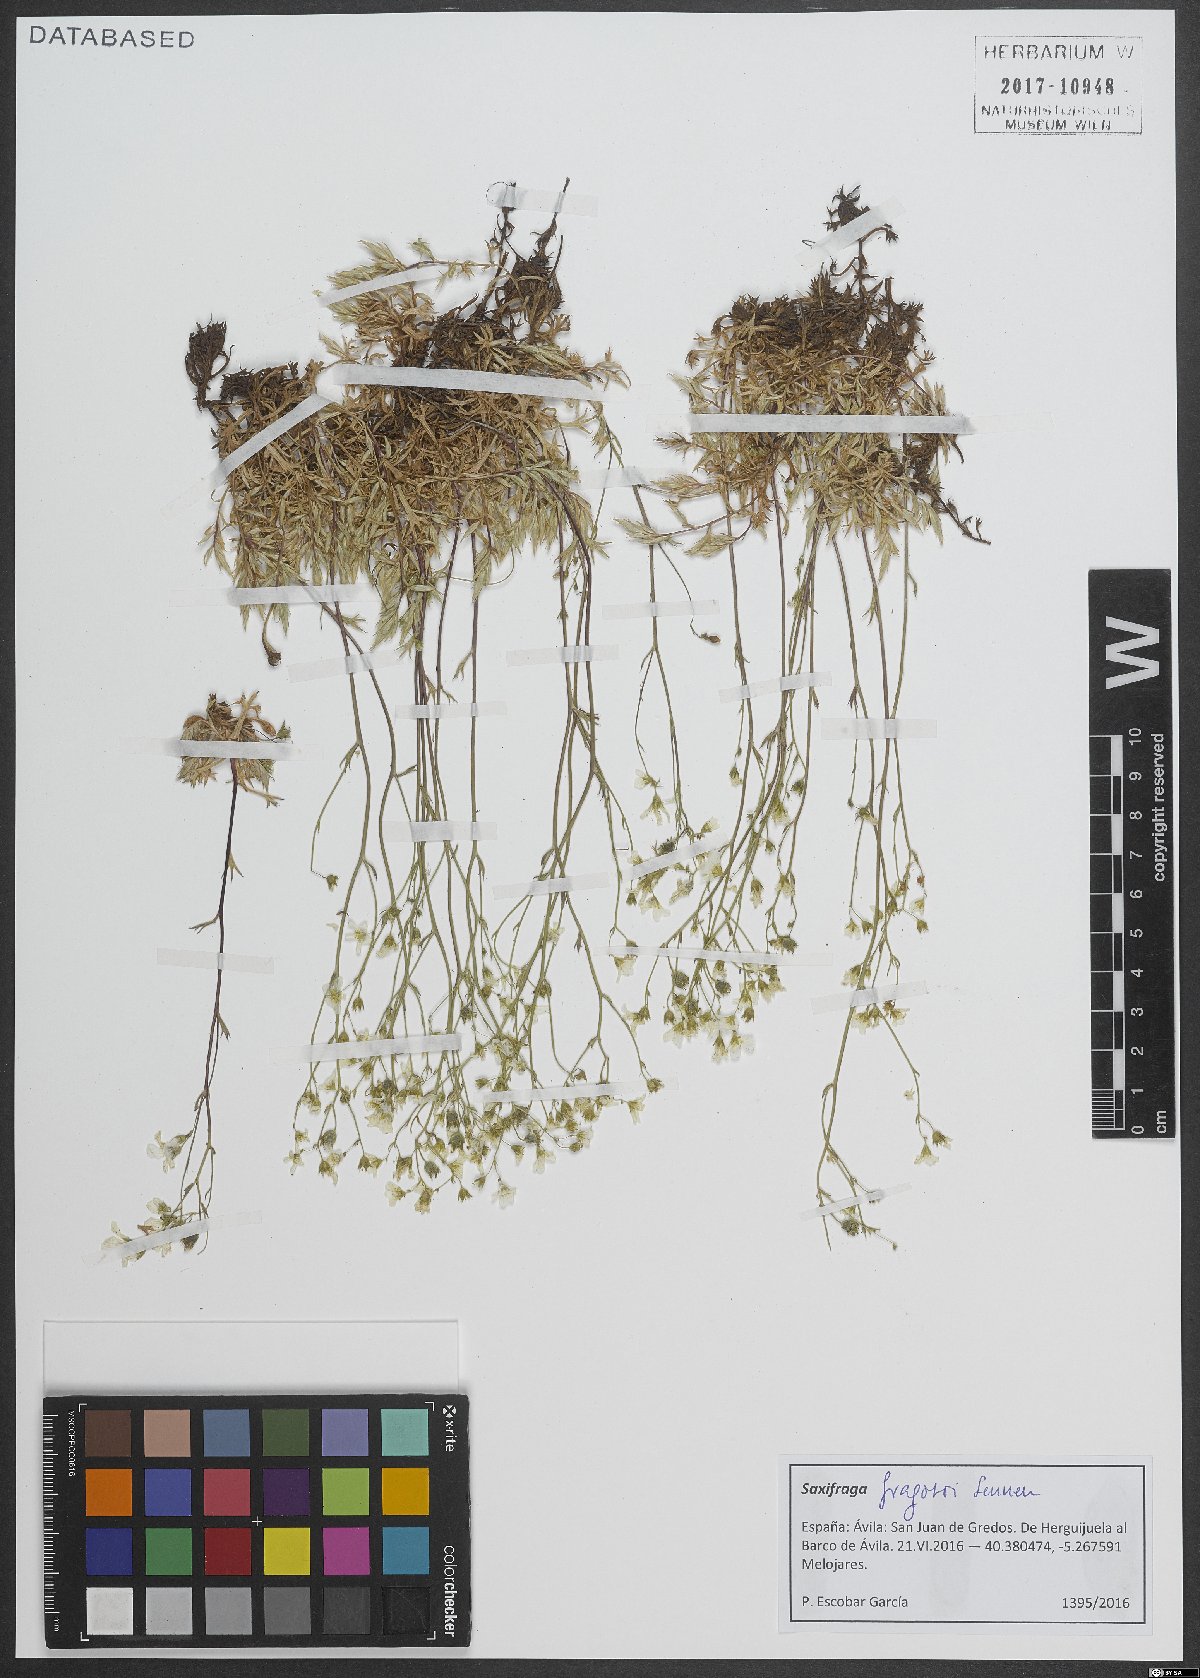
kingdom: Plantae
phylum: Tracheophyta
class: Magnoliopsida
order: Saxifragales
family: Saxifragaceae
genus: Saxifraga
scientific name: Saxifraga fragosoi
